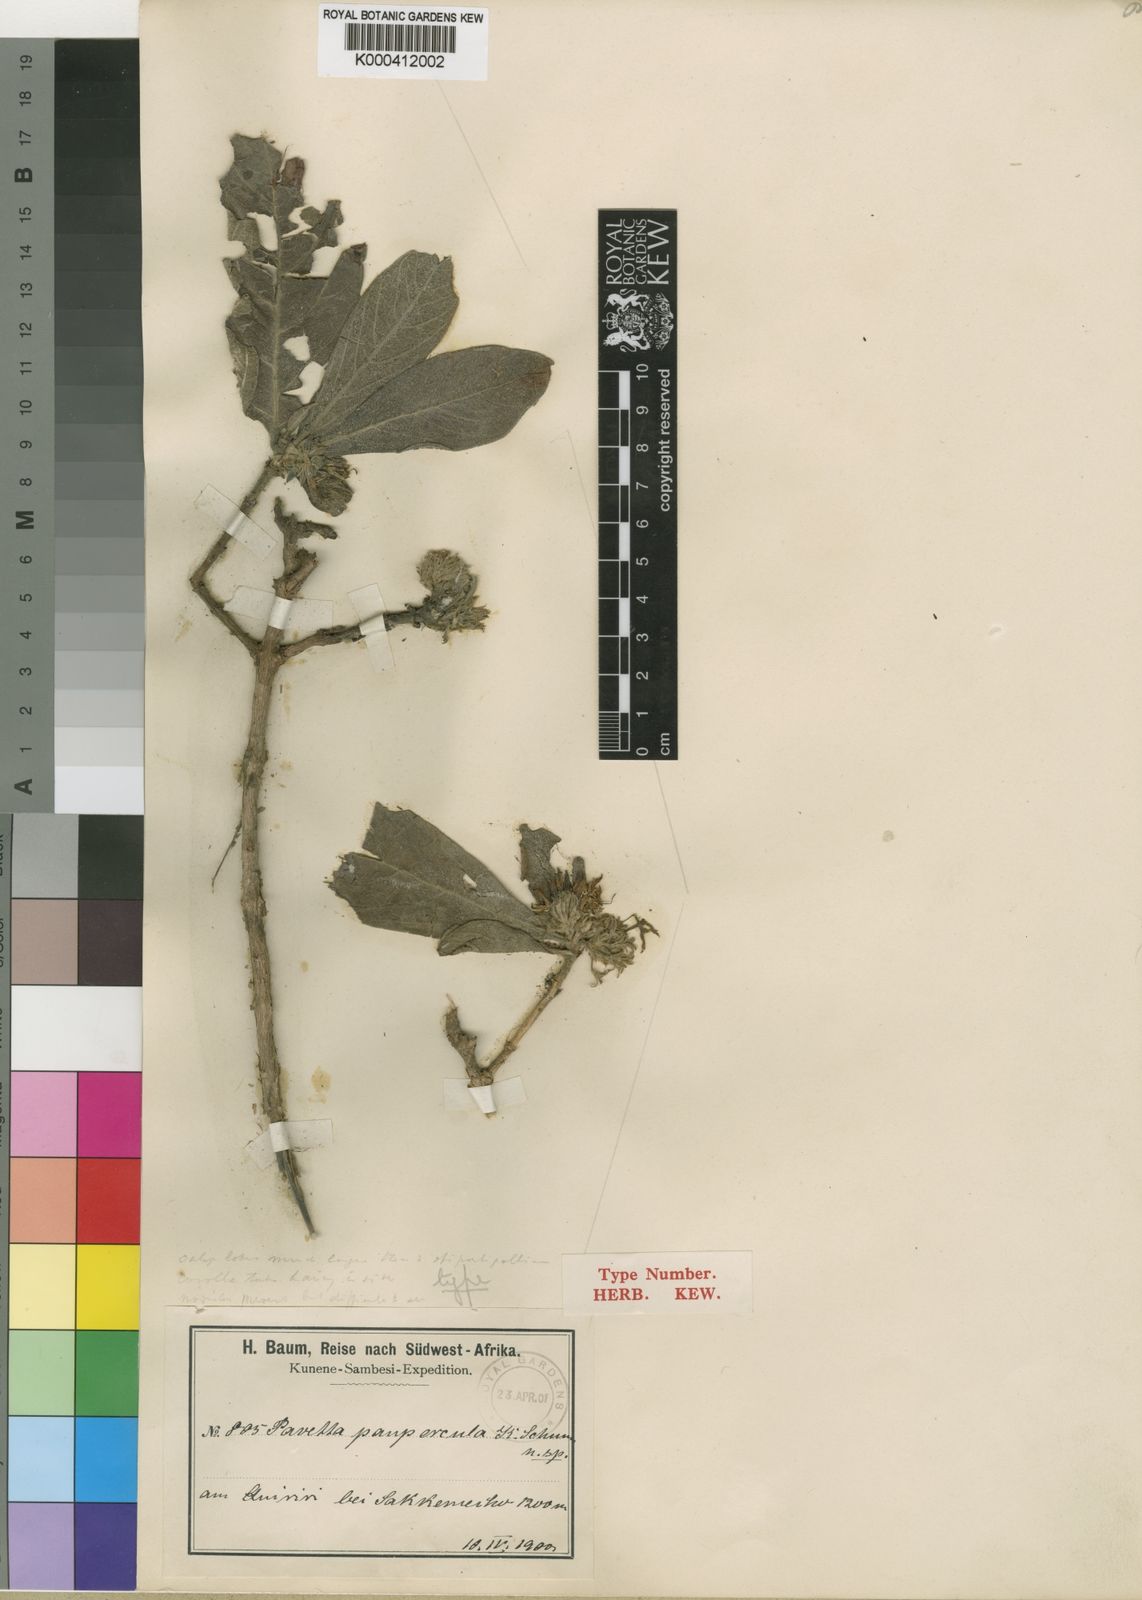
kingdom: Plantae
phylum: Tracheophyta
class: Magnoliopsida
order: Gentianales
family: Rubiaceae
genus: Pavetta
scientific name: Pavetta
